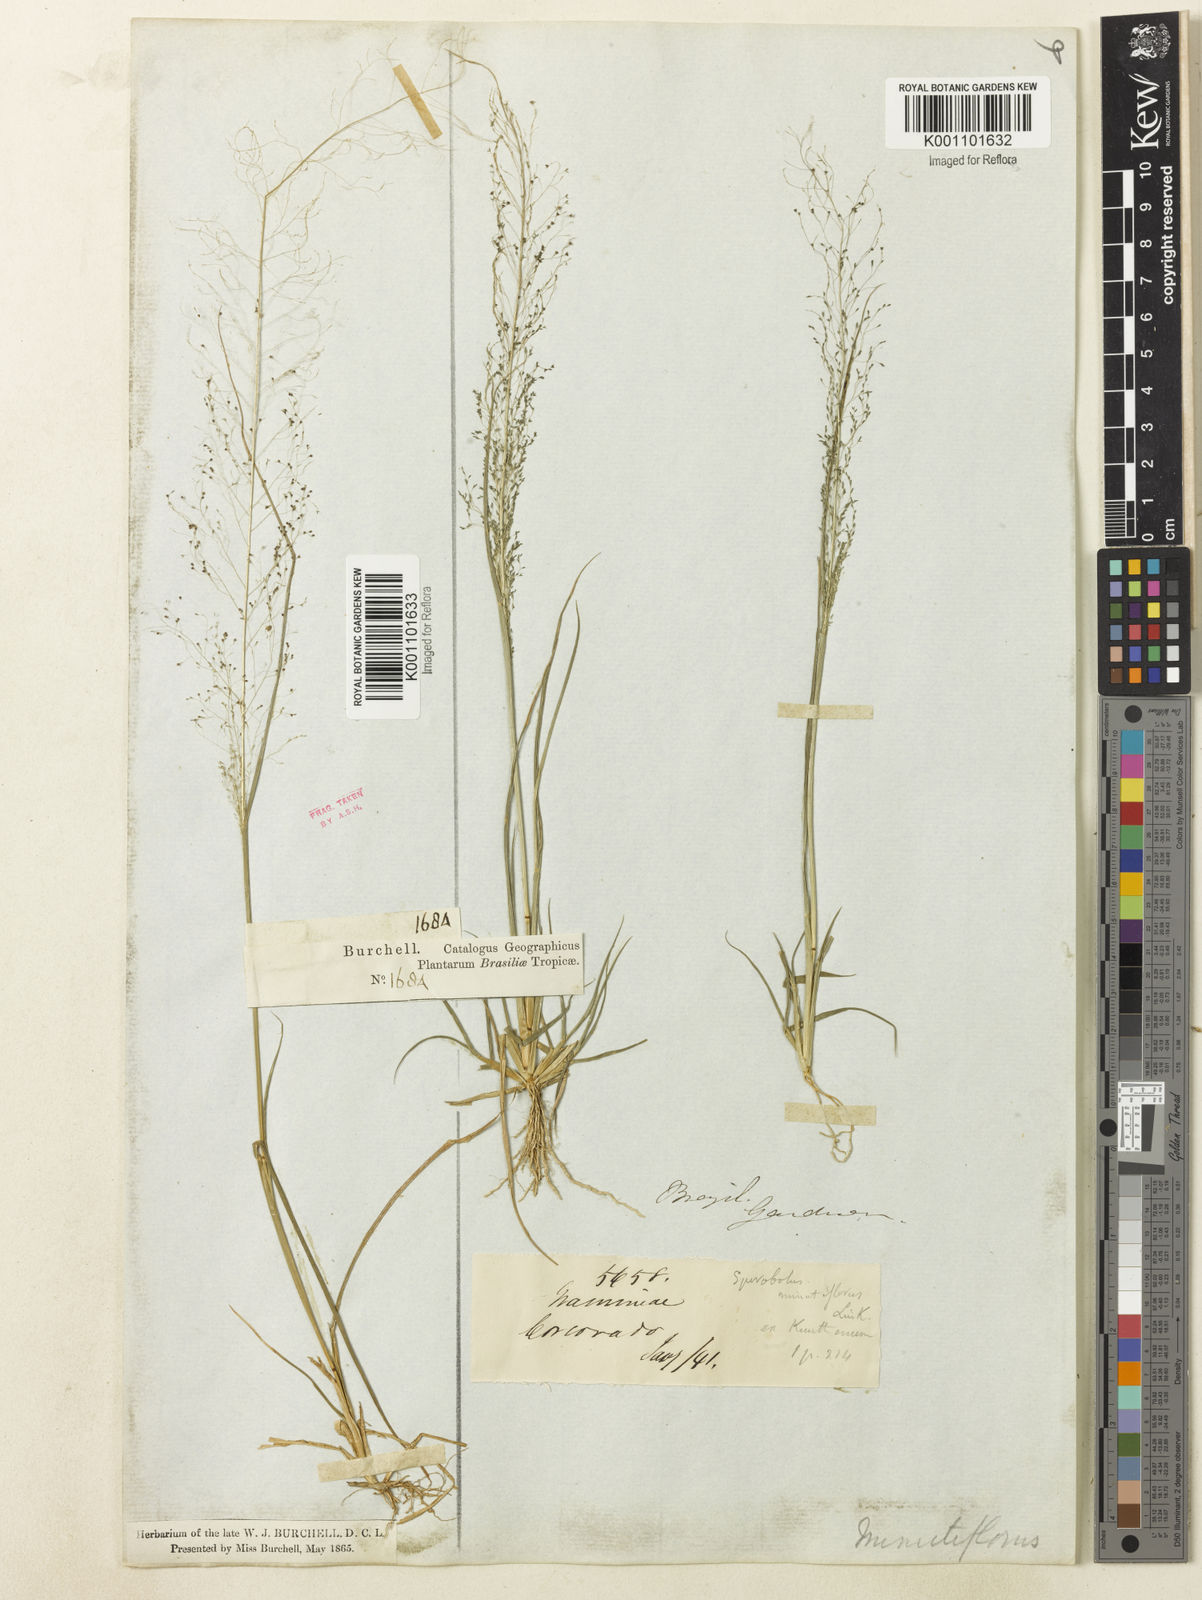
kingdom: Plantae
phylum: Tracheophyta
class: Liliopsida
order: Poales
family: Poaceae
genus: Sporobolus
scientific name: Sporobolus tenuissimus
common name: Tropical dropseed
